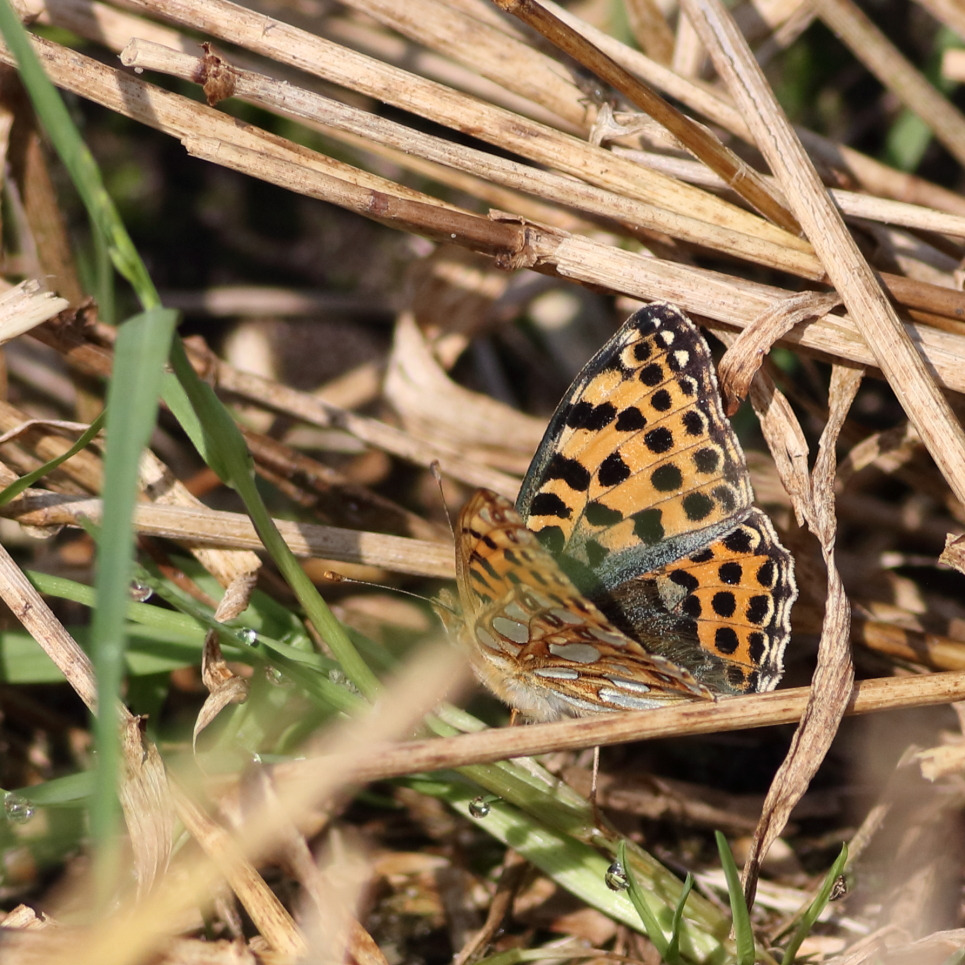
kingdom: Animalia
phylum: Arthropoda
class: Insecta
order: Lepidoptera
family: Nymphalidae
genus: Issoria
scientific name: Issoria lathonia
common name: Storplettet perlemorsommerfugl
